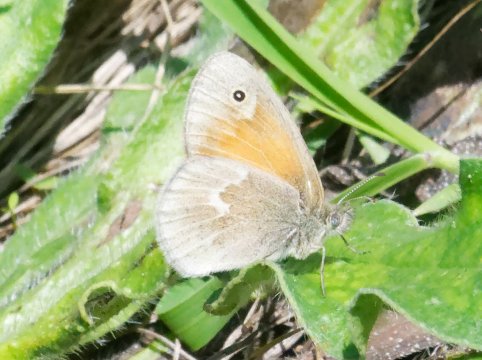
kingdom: Animalia
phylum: Arthropoda
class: Insecta
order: Lepidoptera
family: Nymphalidae
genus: Coenonympha
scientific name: Coenonympha california
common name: California Ringlet
